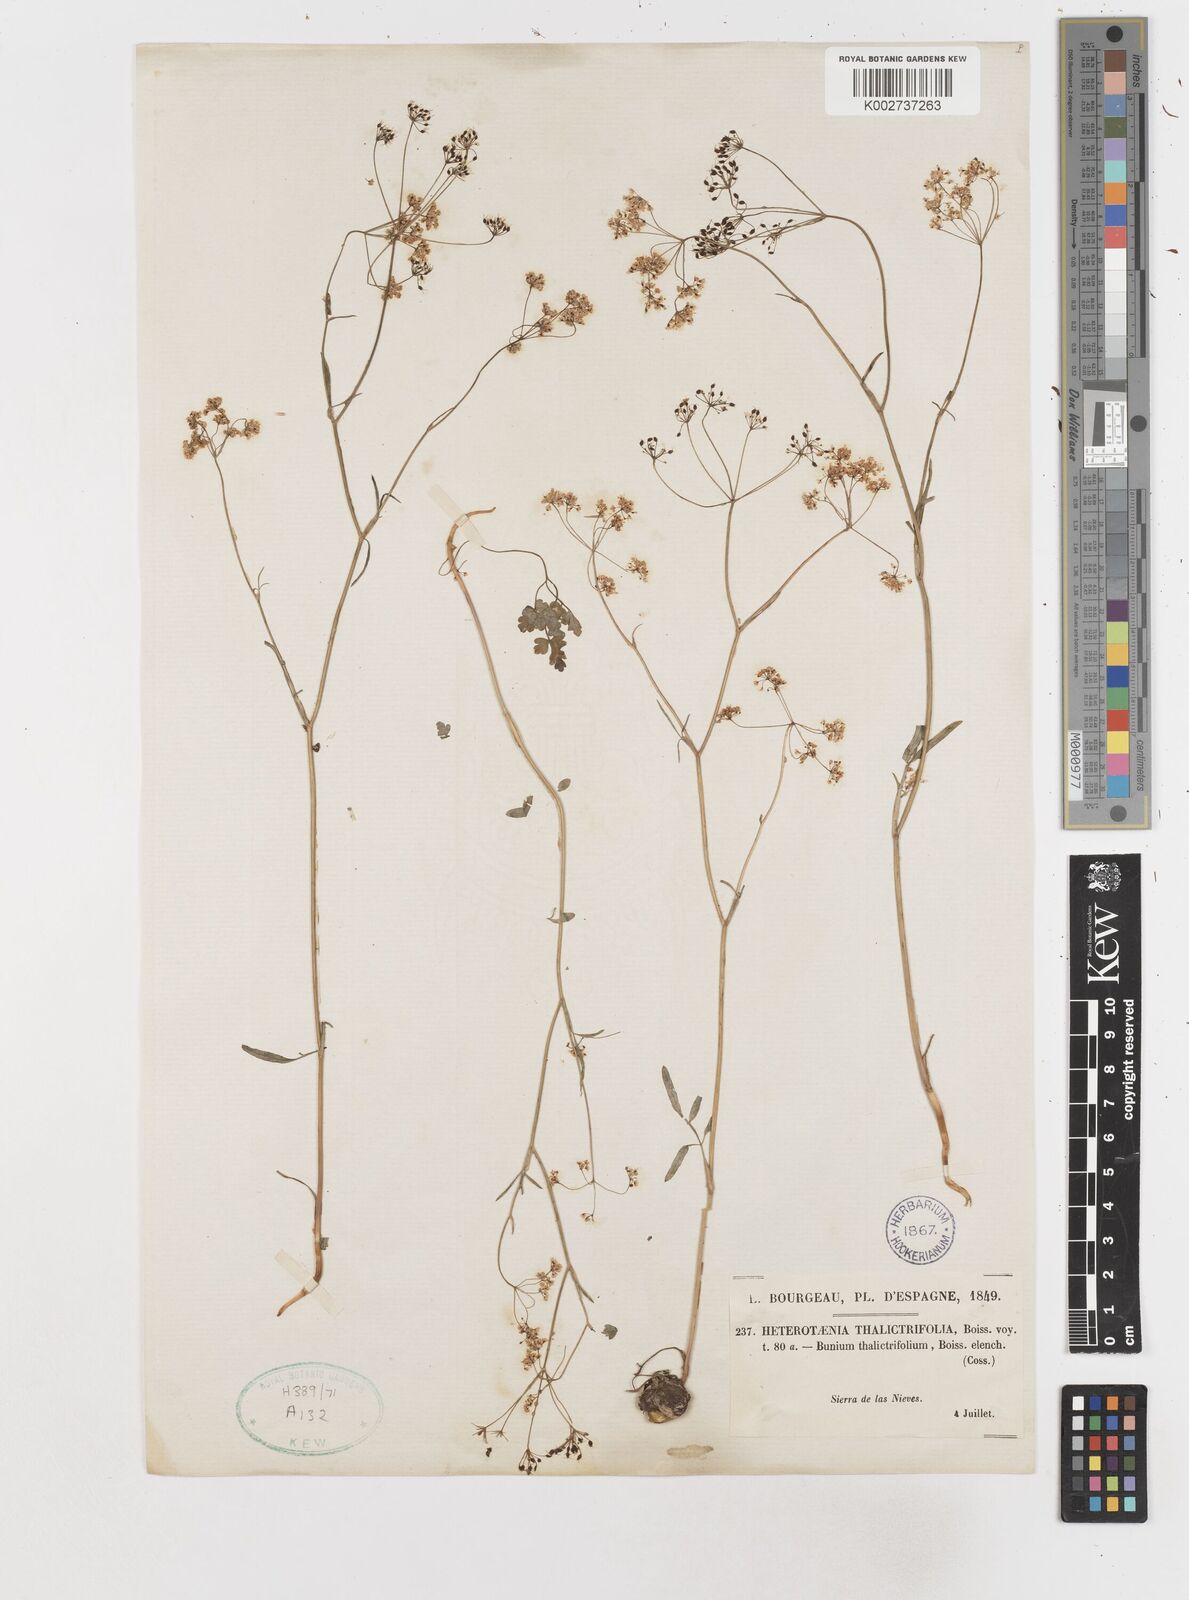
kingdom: Plantae
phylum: Tracheophyta
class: Magnoliopsida
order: Apiales
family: Apiaceae
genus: Conopodium
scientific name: Conopodium thalictrifolium
